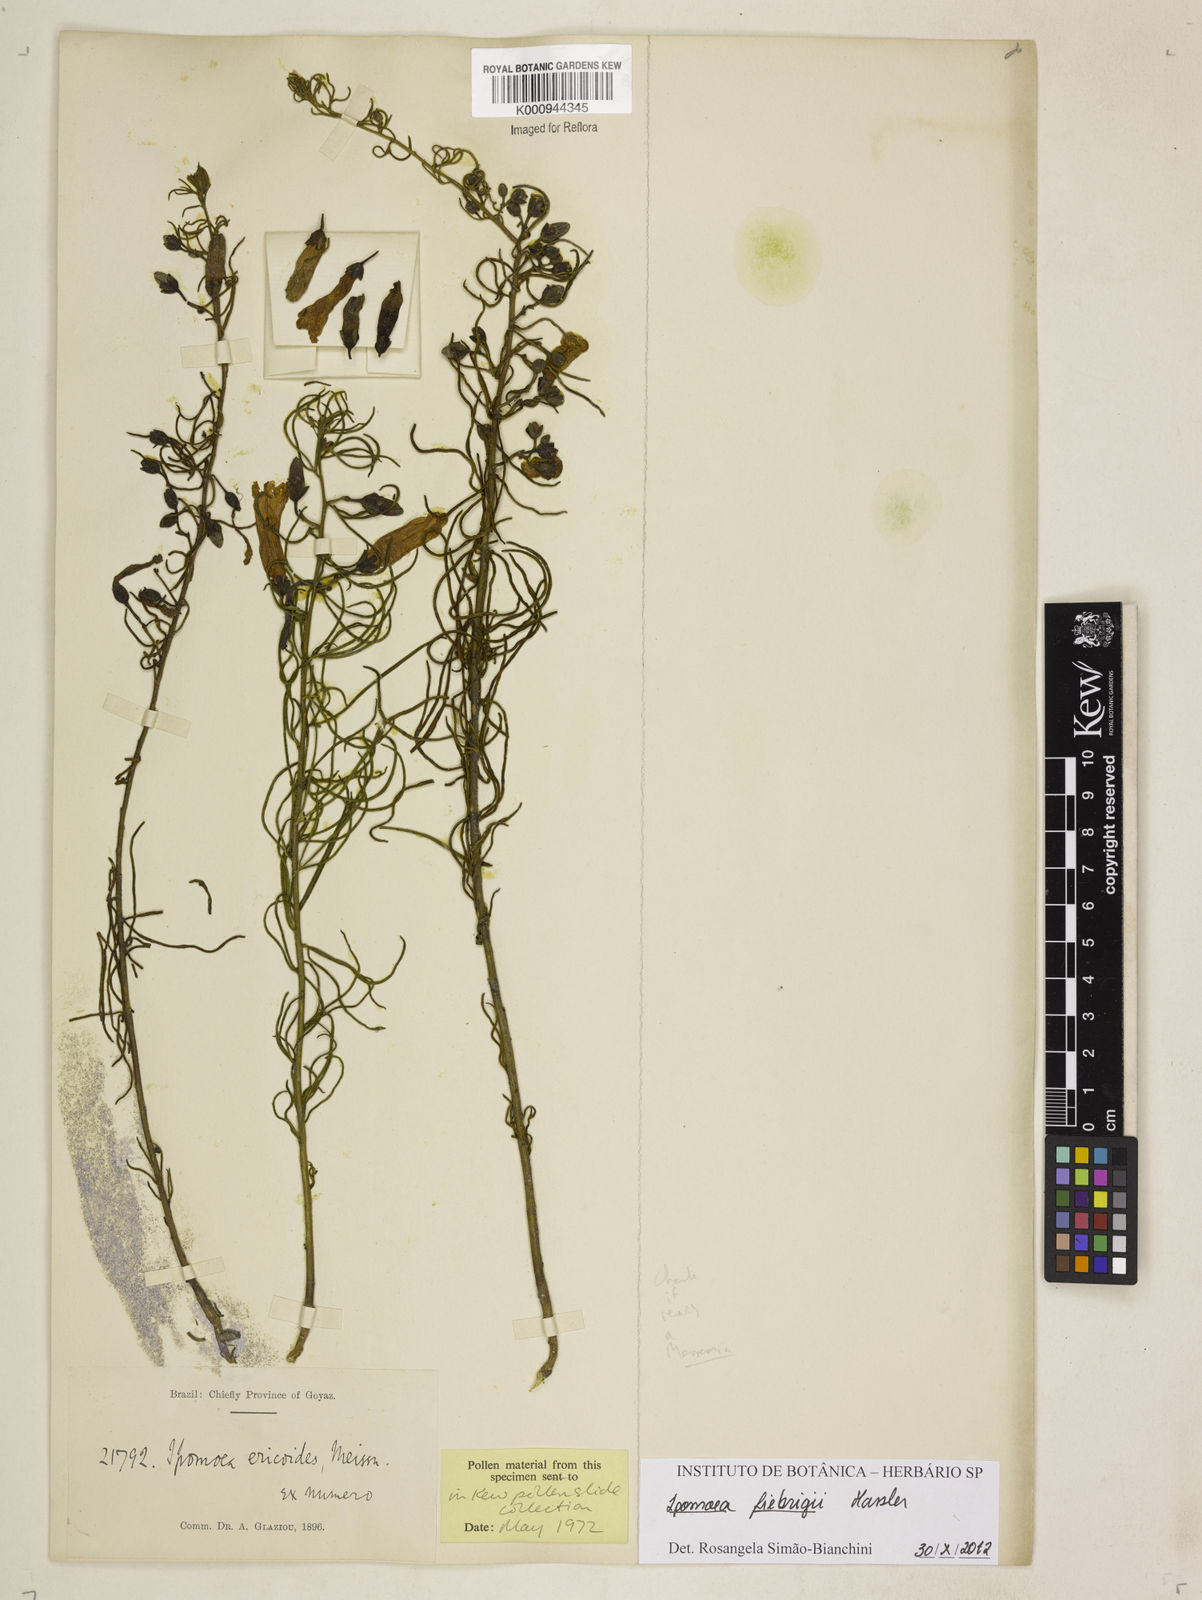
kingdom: Plantae
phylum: Tracheophyta
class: Magnoliopsida
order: Solanales
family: Convolvulaceae
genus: Ipomoea
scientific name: Ipomoea angustissima
